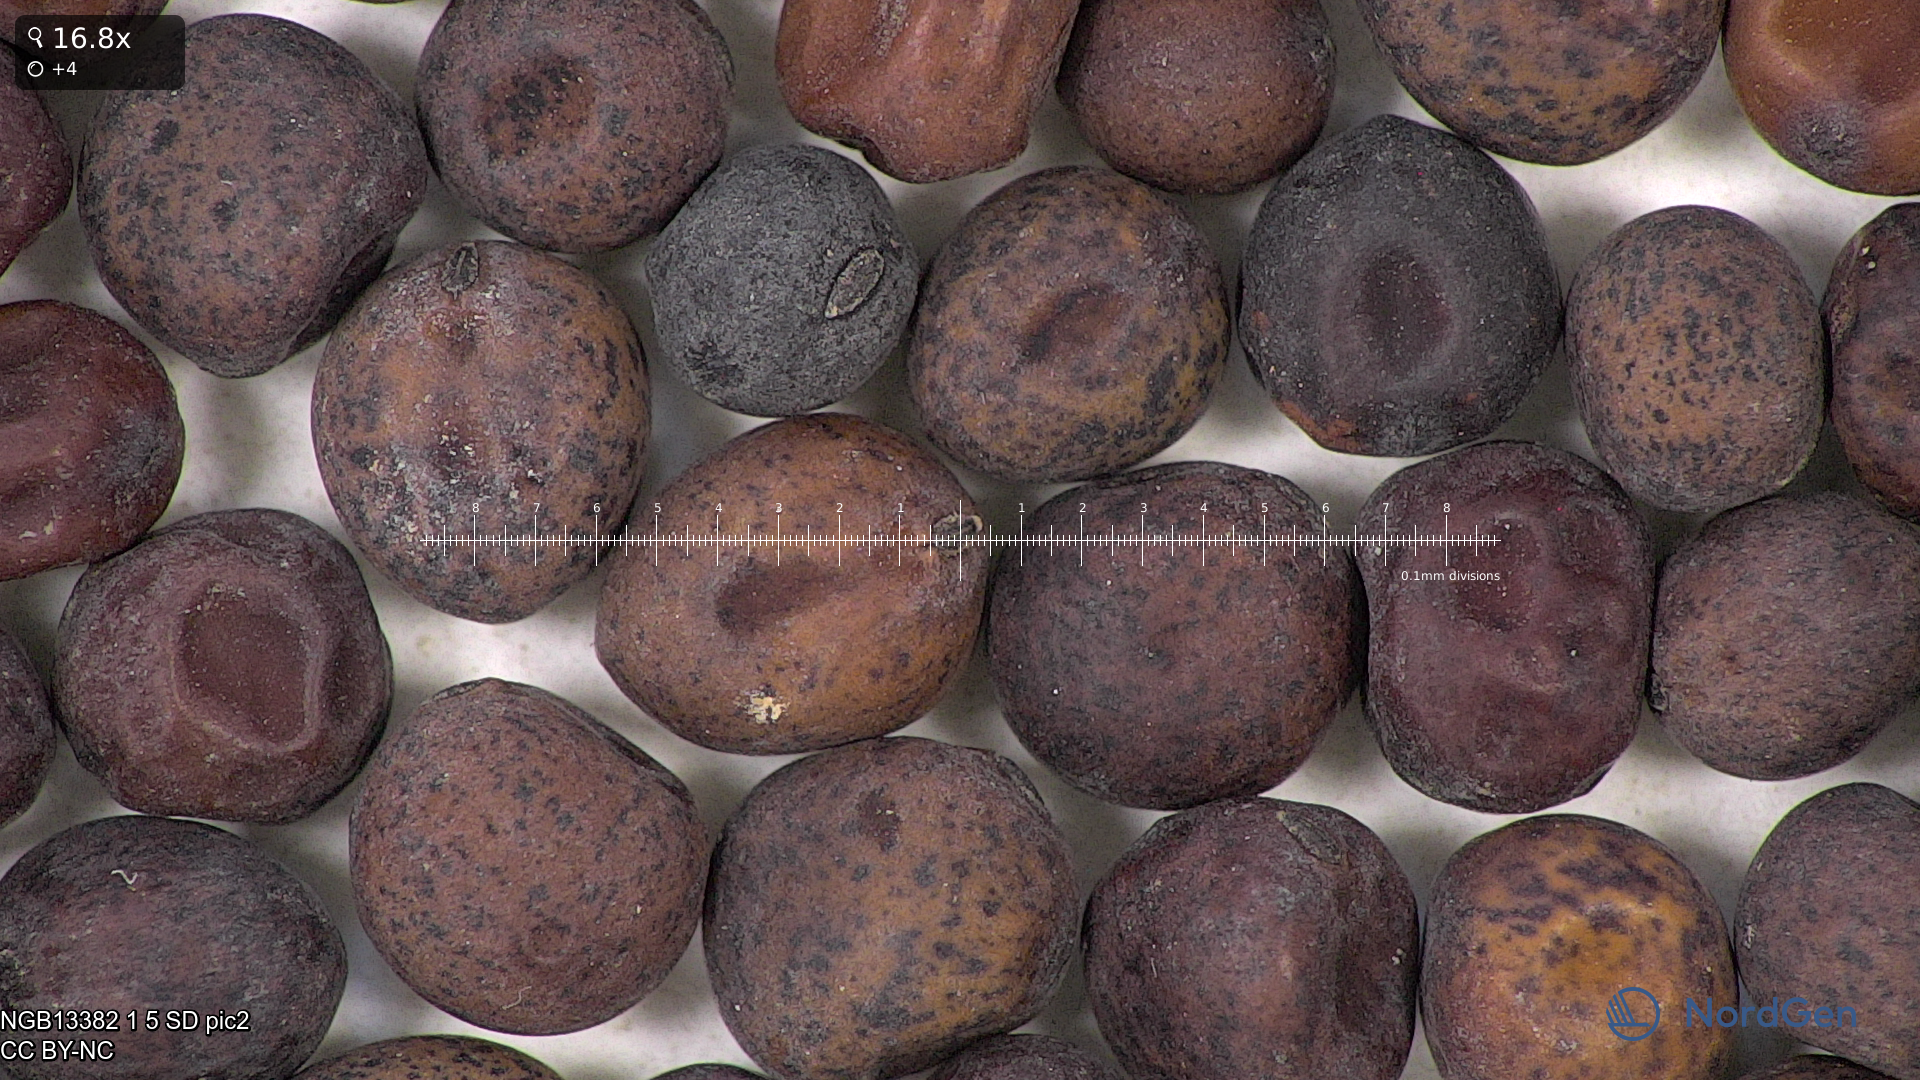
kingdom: Plantae
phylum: Tracheophyta
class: Magnoliopsida
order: Fabales
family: Fabaceae
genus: Lathyrus
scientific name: Lathyrus oleraceus
